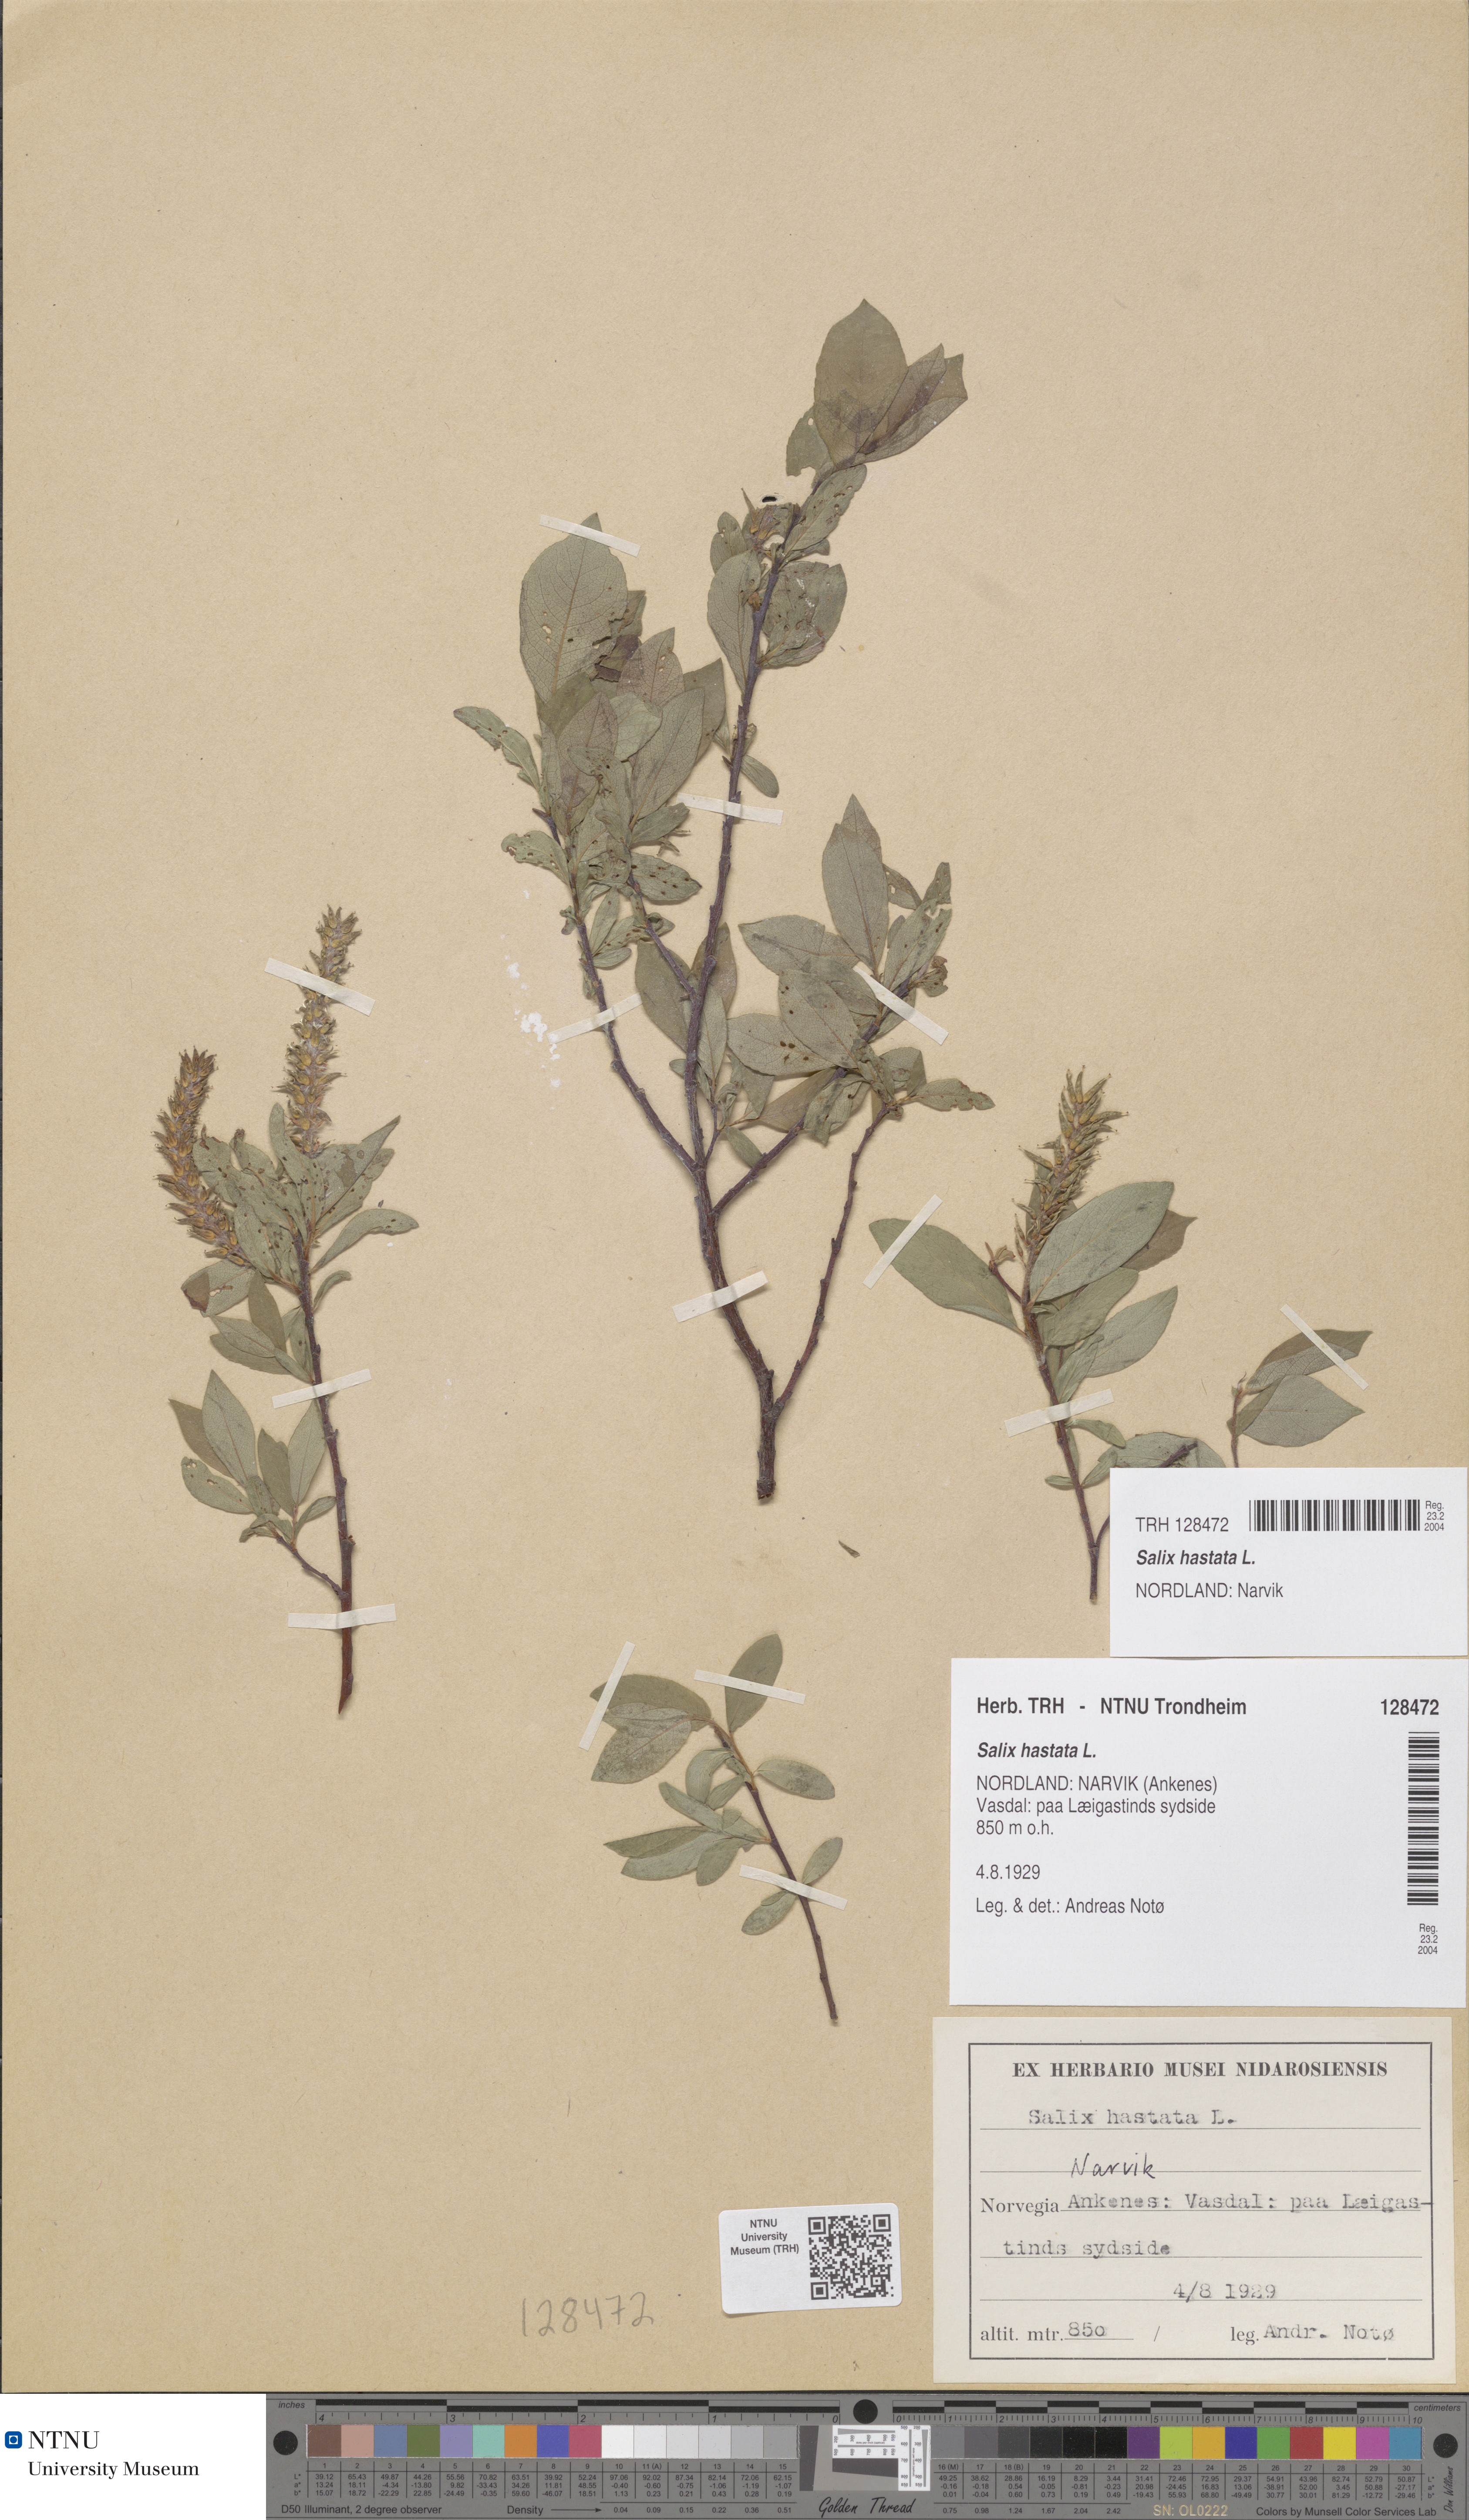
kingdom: Plantae
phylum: Tracheophyta
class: Magnoliopsida
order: Malpighiales
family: Salicaceae
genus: Salix
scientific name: Salix hastata
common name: Halberd willow
